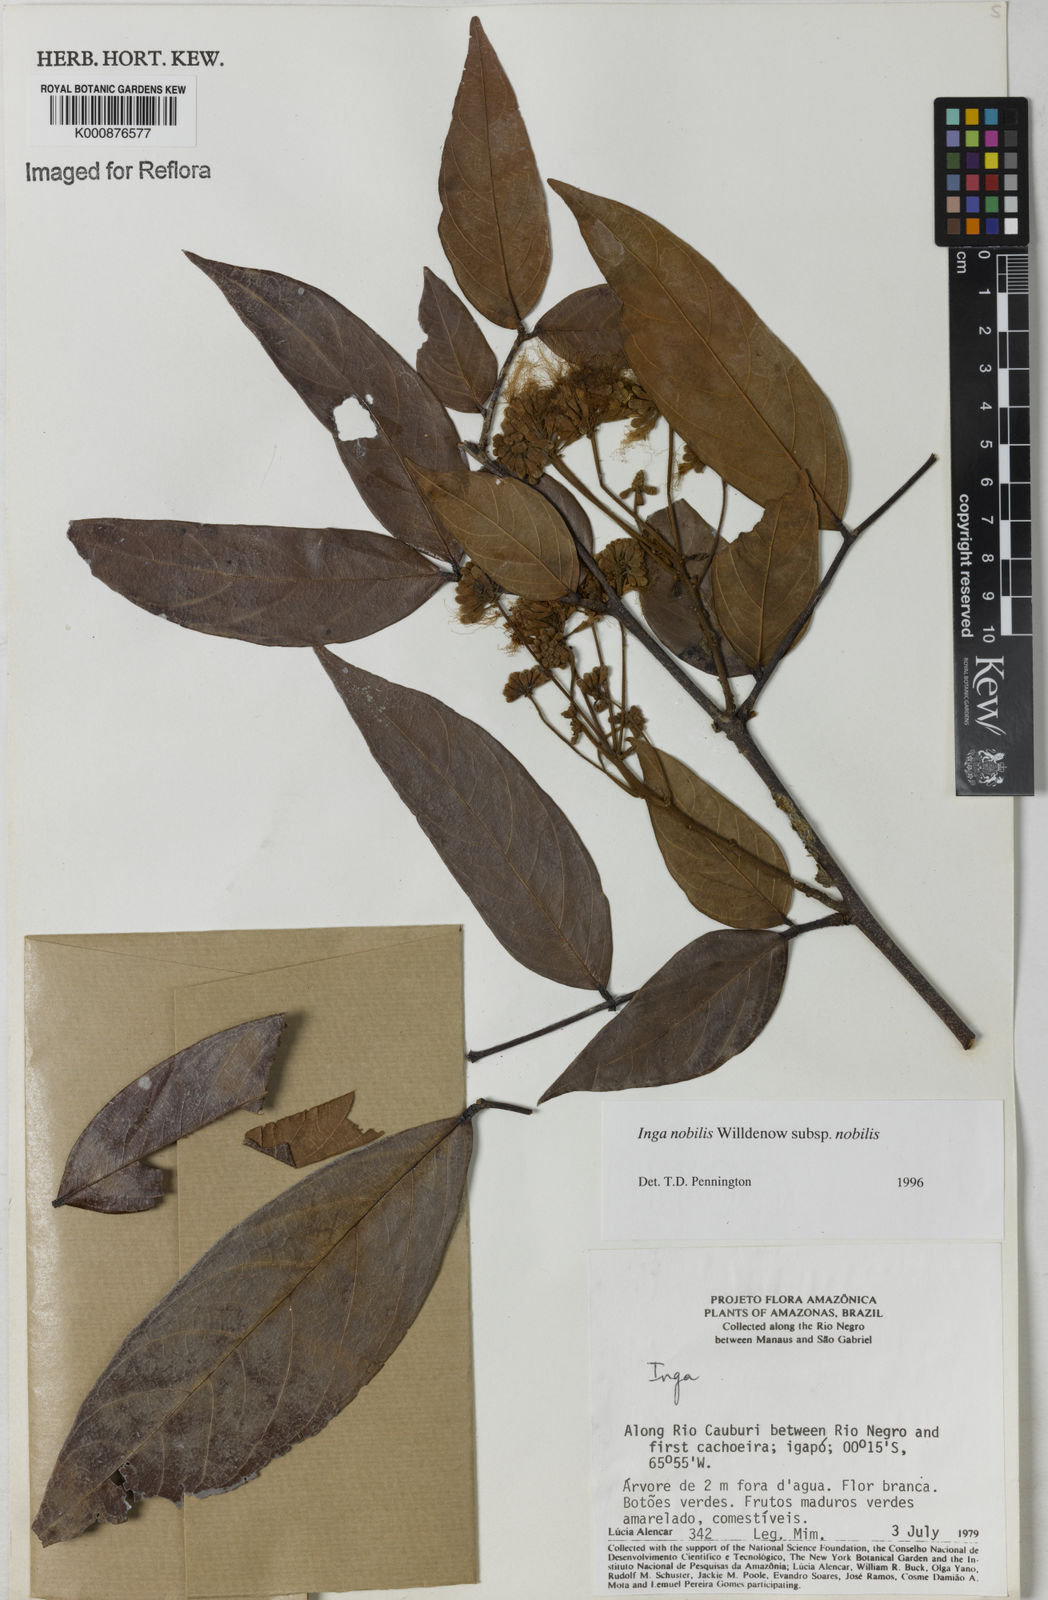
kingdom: Plantae
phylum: Tracheophyta
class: Magnoliopsida
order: Fabales
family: Fabaceae
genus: Inga
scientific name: Inga nobilis
